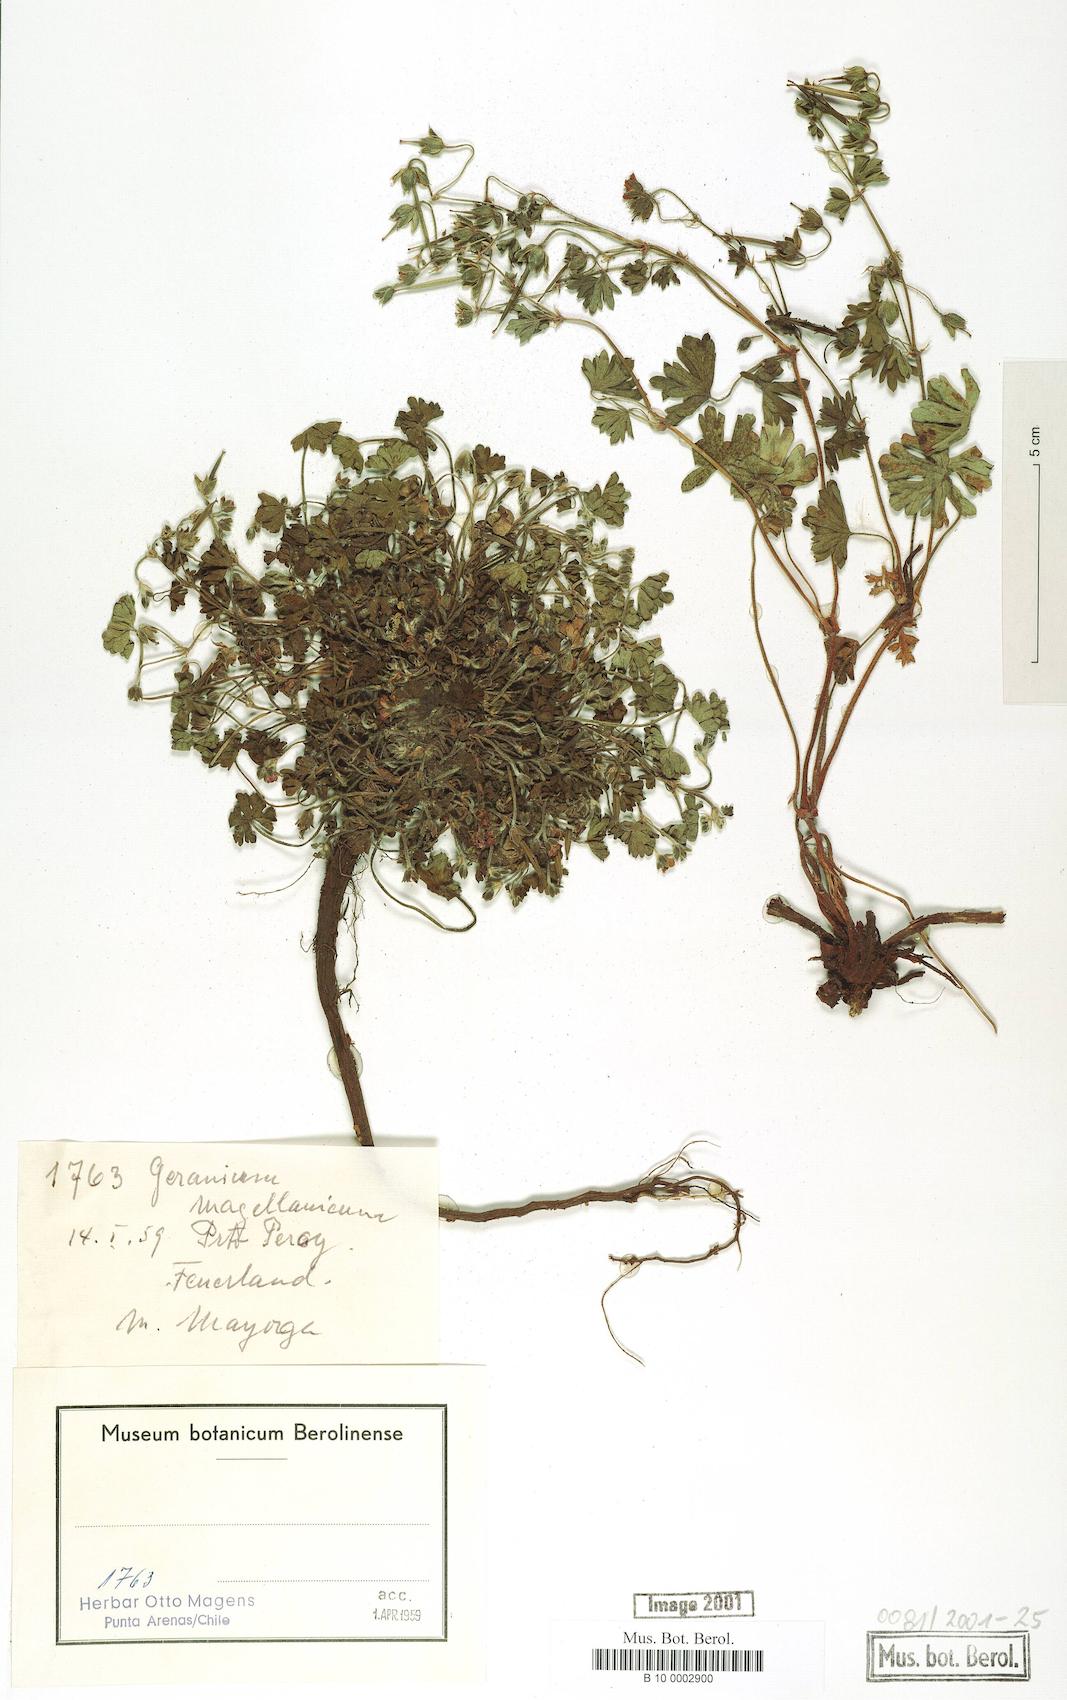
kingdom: Plantae
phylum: Tracheophyta
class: Magnoliopsida
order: Geraniales
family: Geraniaceae
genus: Geranium
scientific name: Geranium magellanicum
